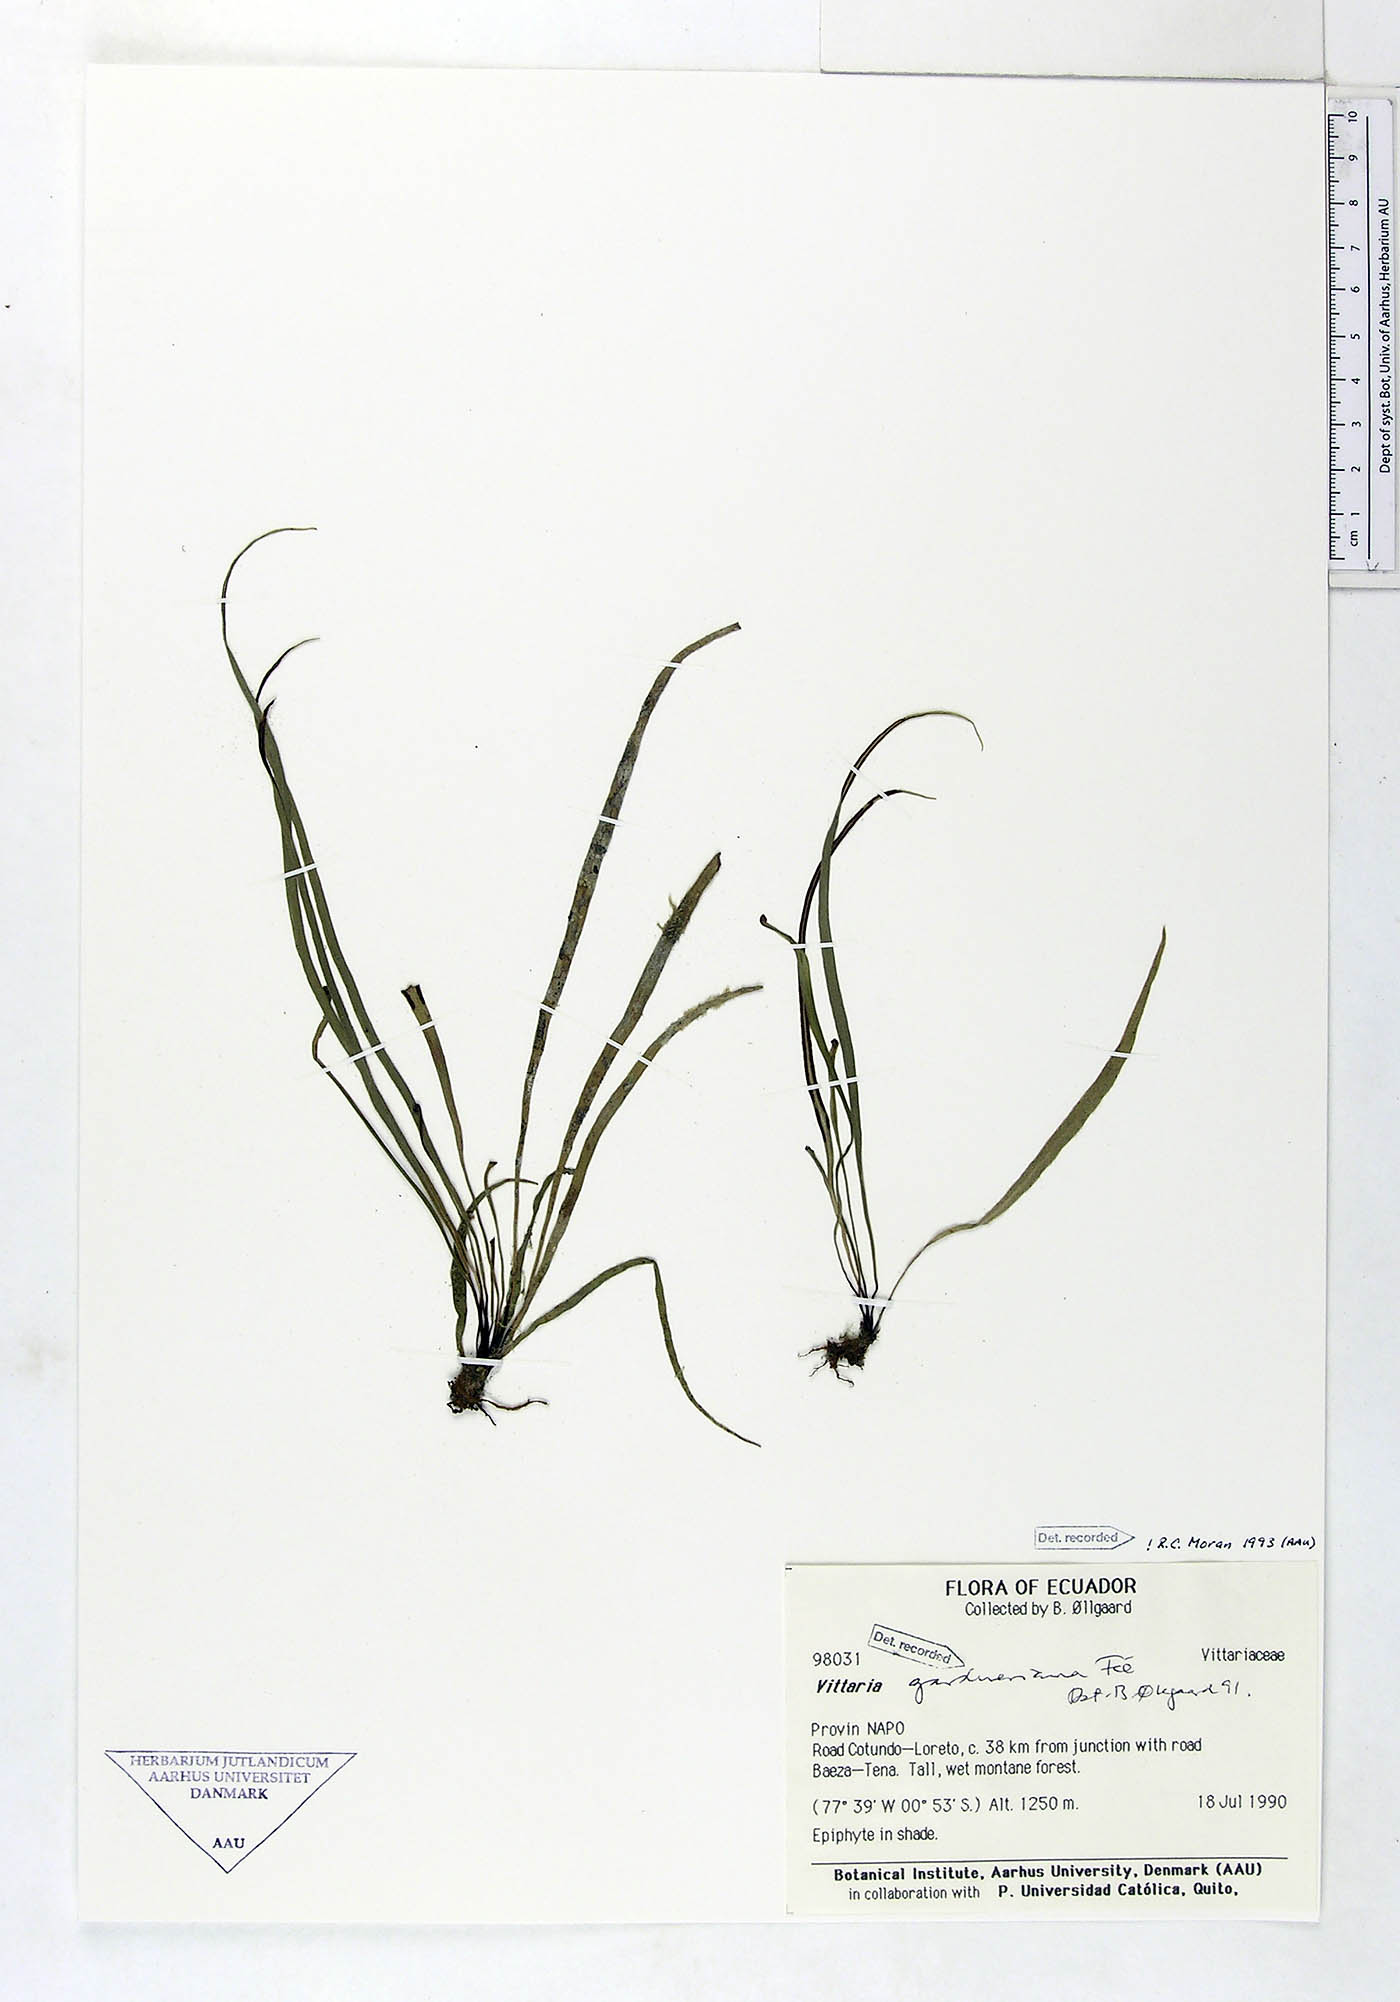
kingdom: Plantae
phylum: Tracheophyta
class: Polypodiopsida
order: Polypodiales
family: Pteridaceae
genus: Radiovittaria
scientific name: Radiovittaria gardneriana
